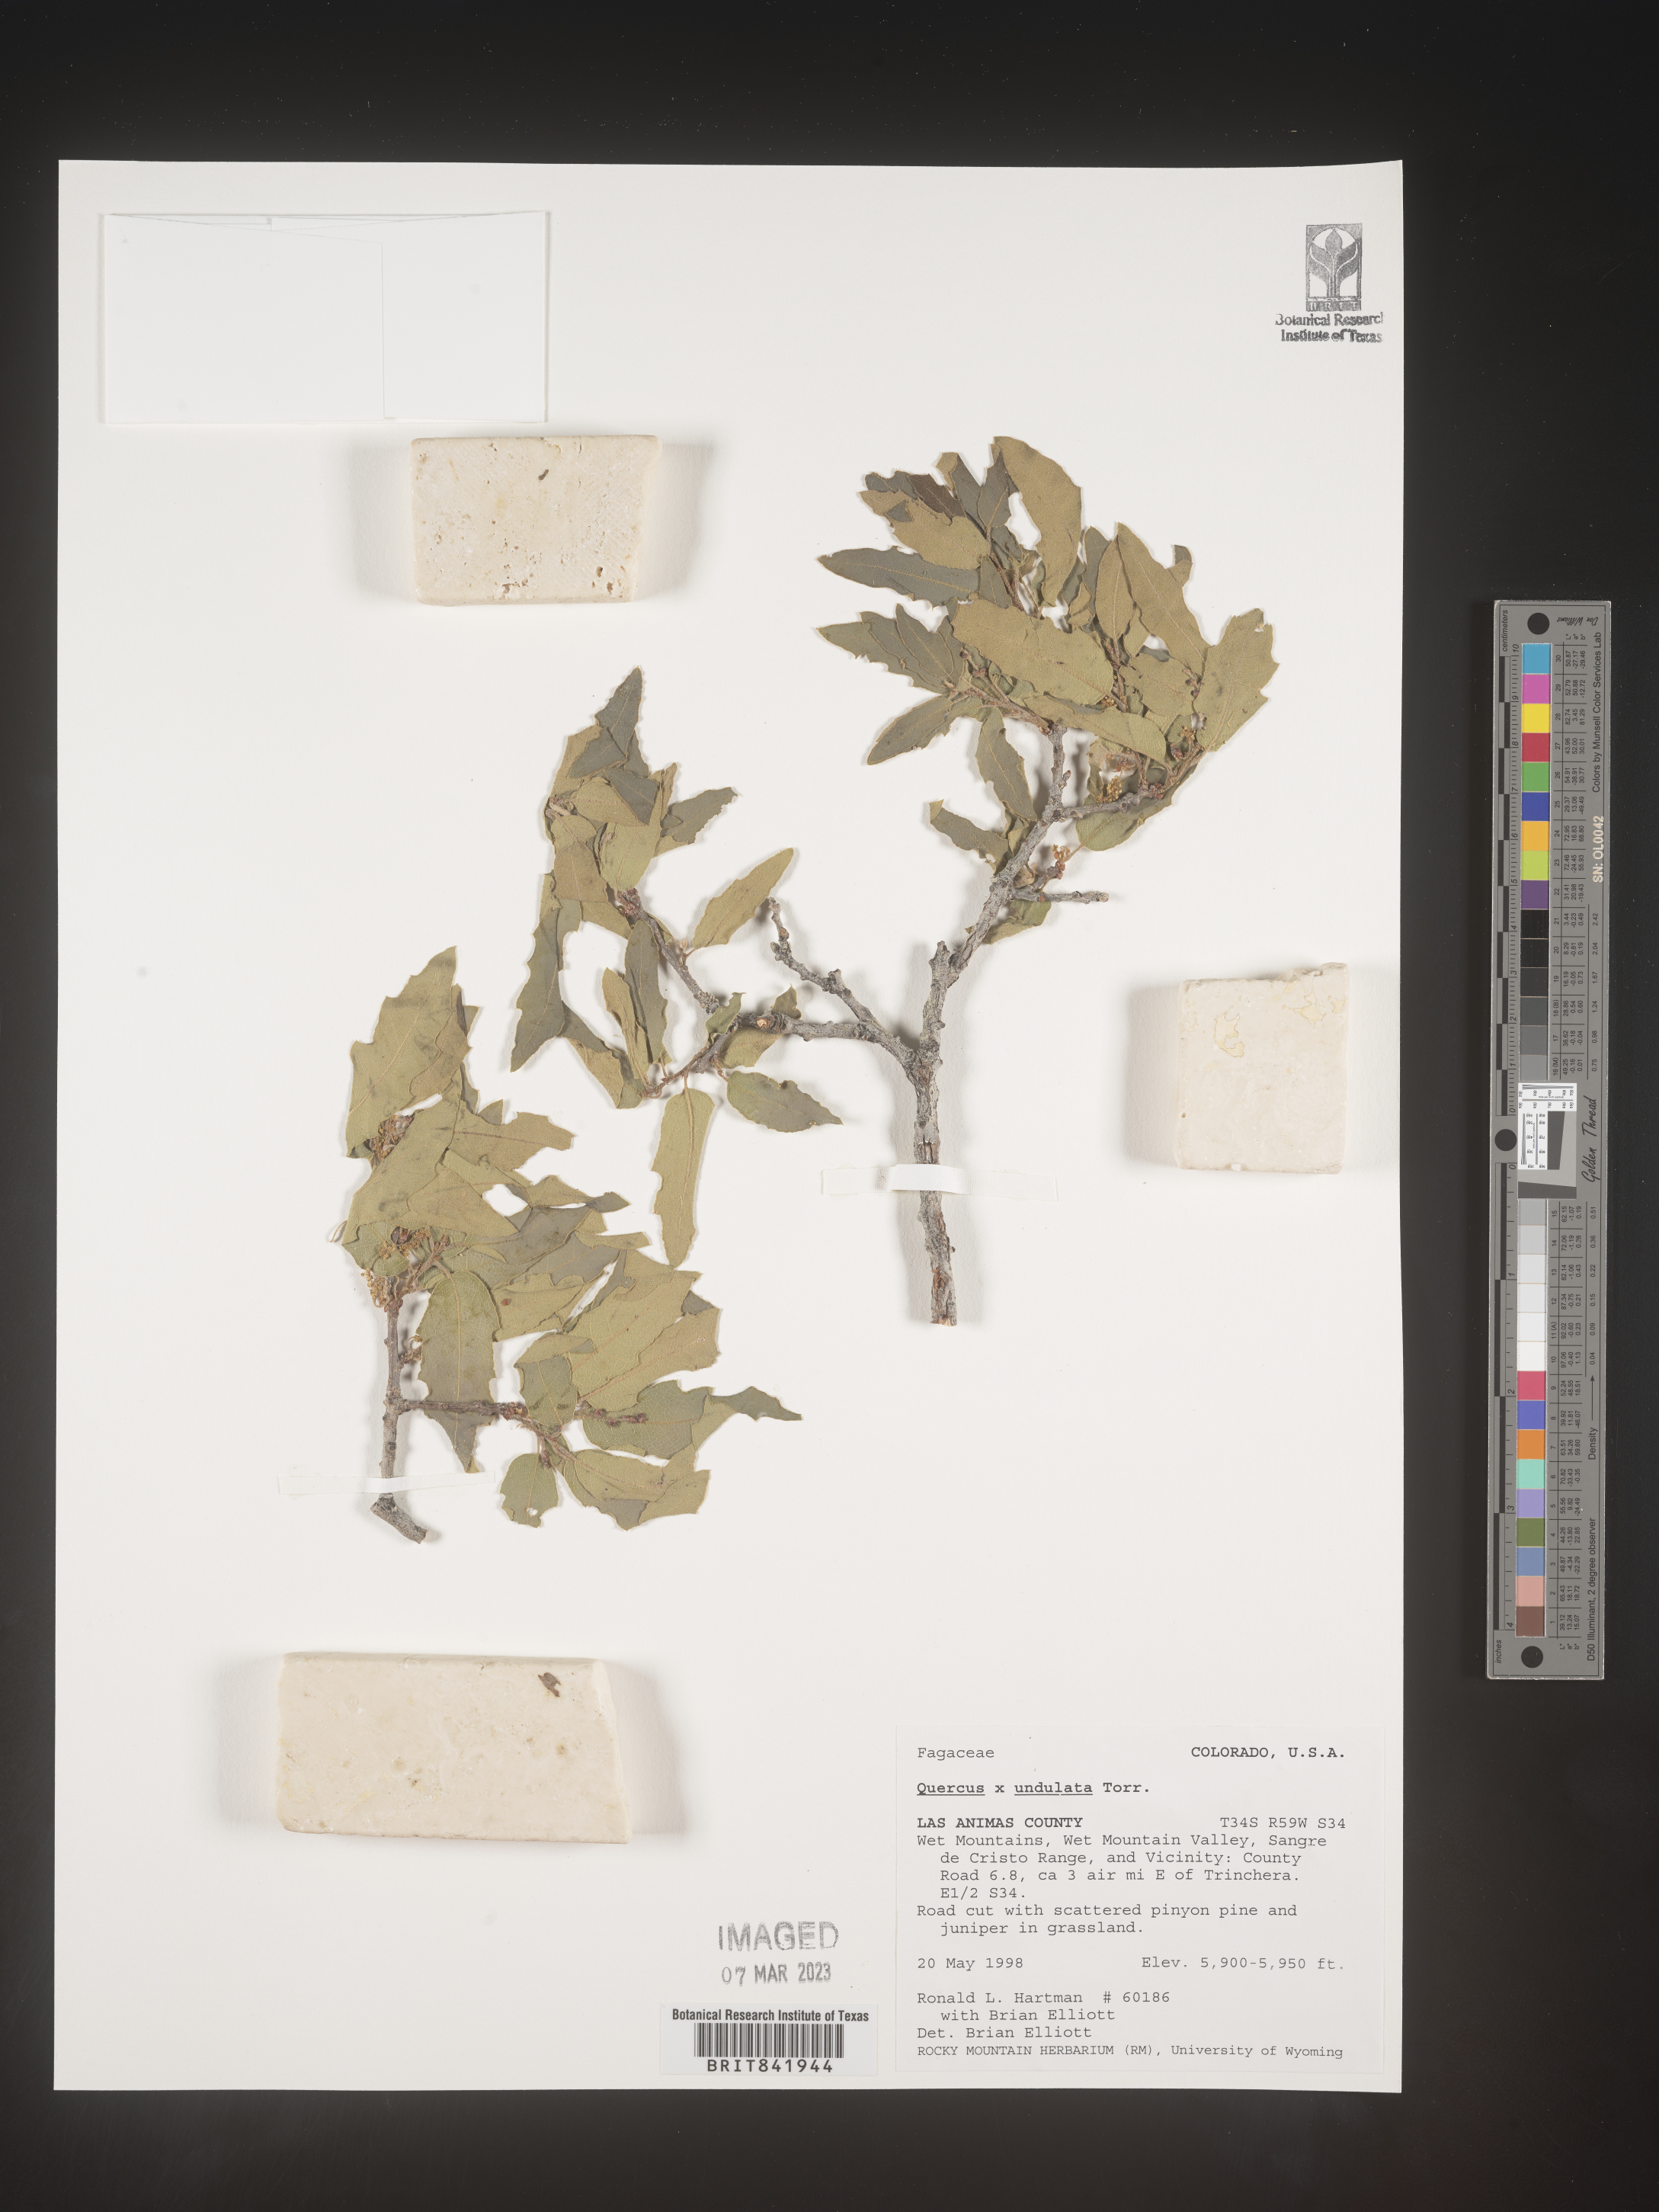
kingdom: Plantae
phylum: Tracheophyta
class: Magnoliopsida
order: Fagales
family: Fagaceae
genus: Quercus
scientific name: Quercus undulata
